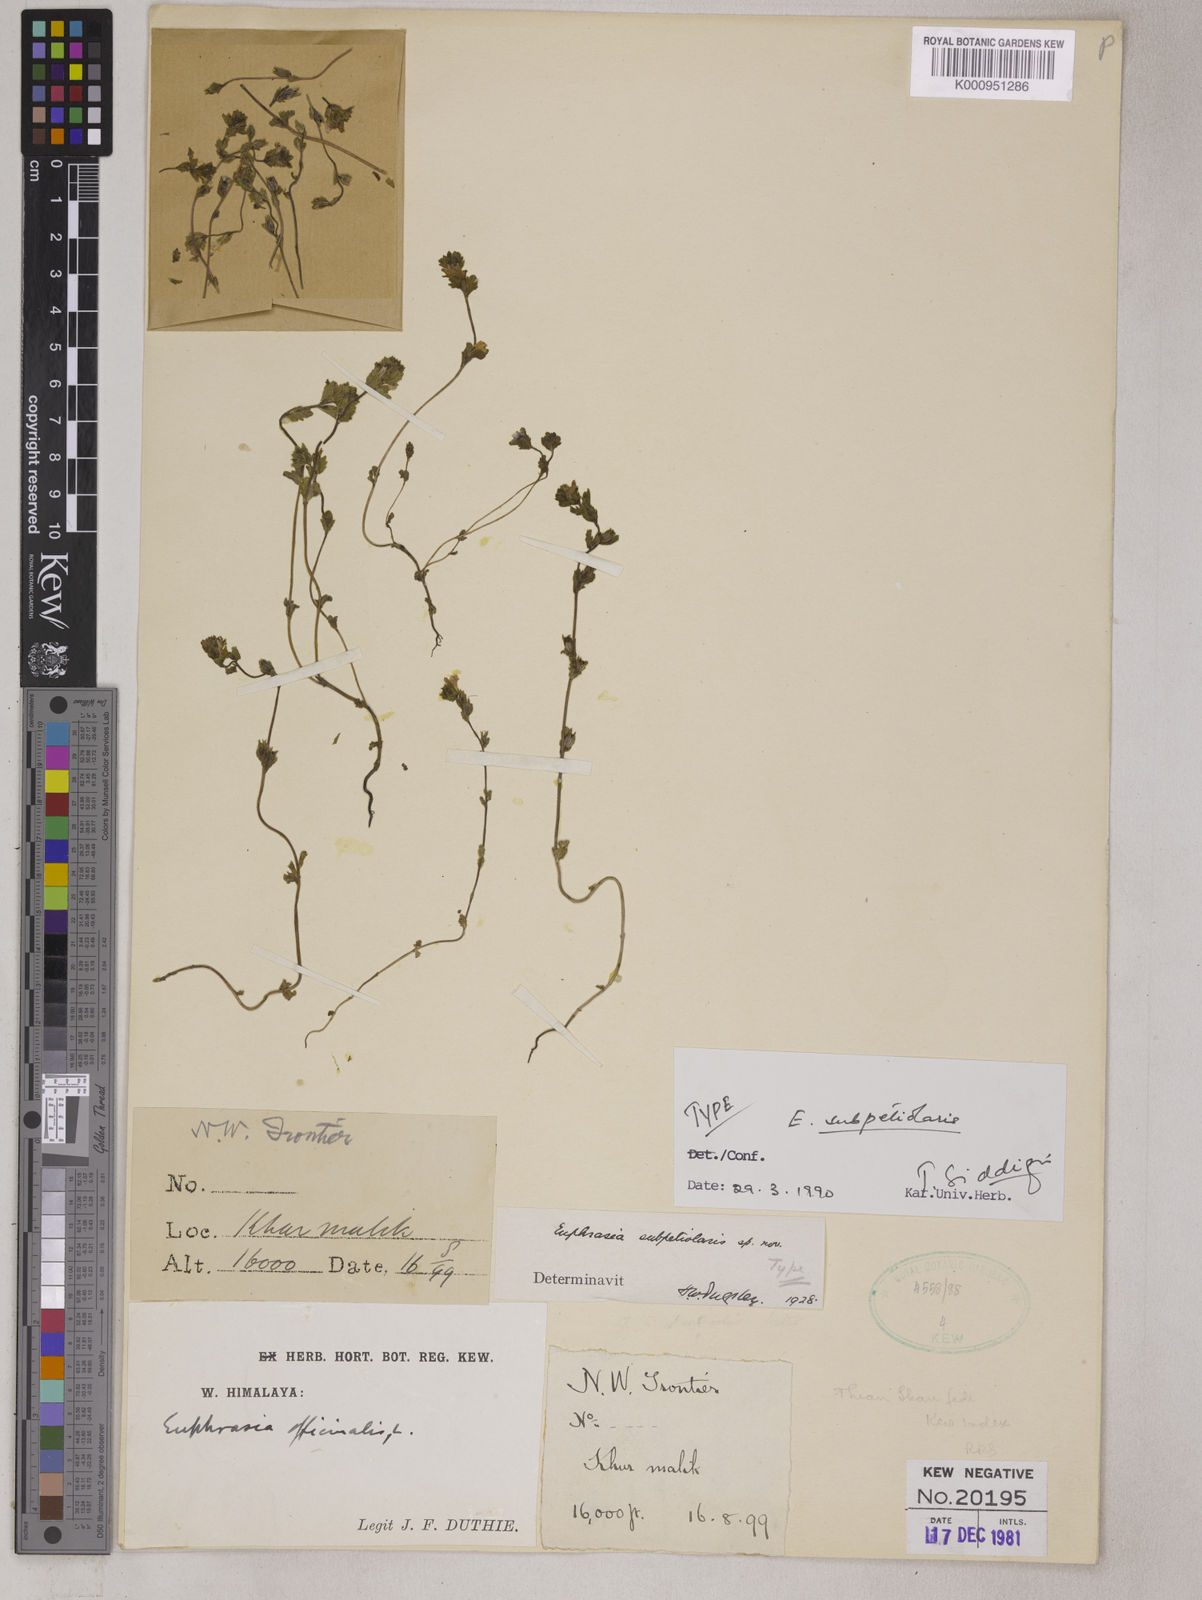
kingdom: Plantae
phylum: Tracheophyta
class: Magnoliopsida
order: Lamiales
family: Orobanchaceae
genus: Euphrasia
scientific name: Euphrasia pectinata
